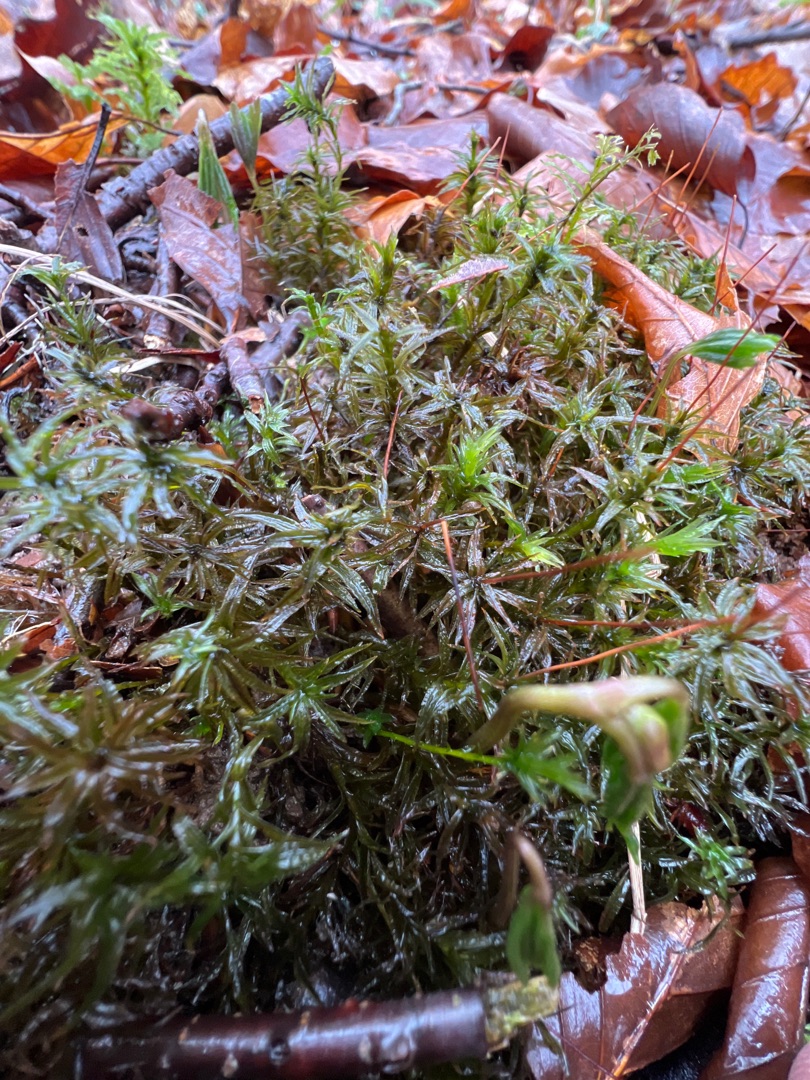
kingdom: Plantae
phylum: Bryophyta
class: Polytrichopsida
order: Polytrichales
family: Polytrichaceae
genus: Atrichum
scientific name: Atrichum undulatum
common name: Bølget katrinemos
